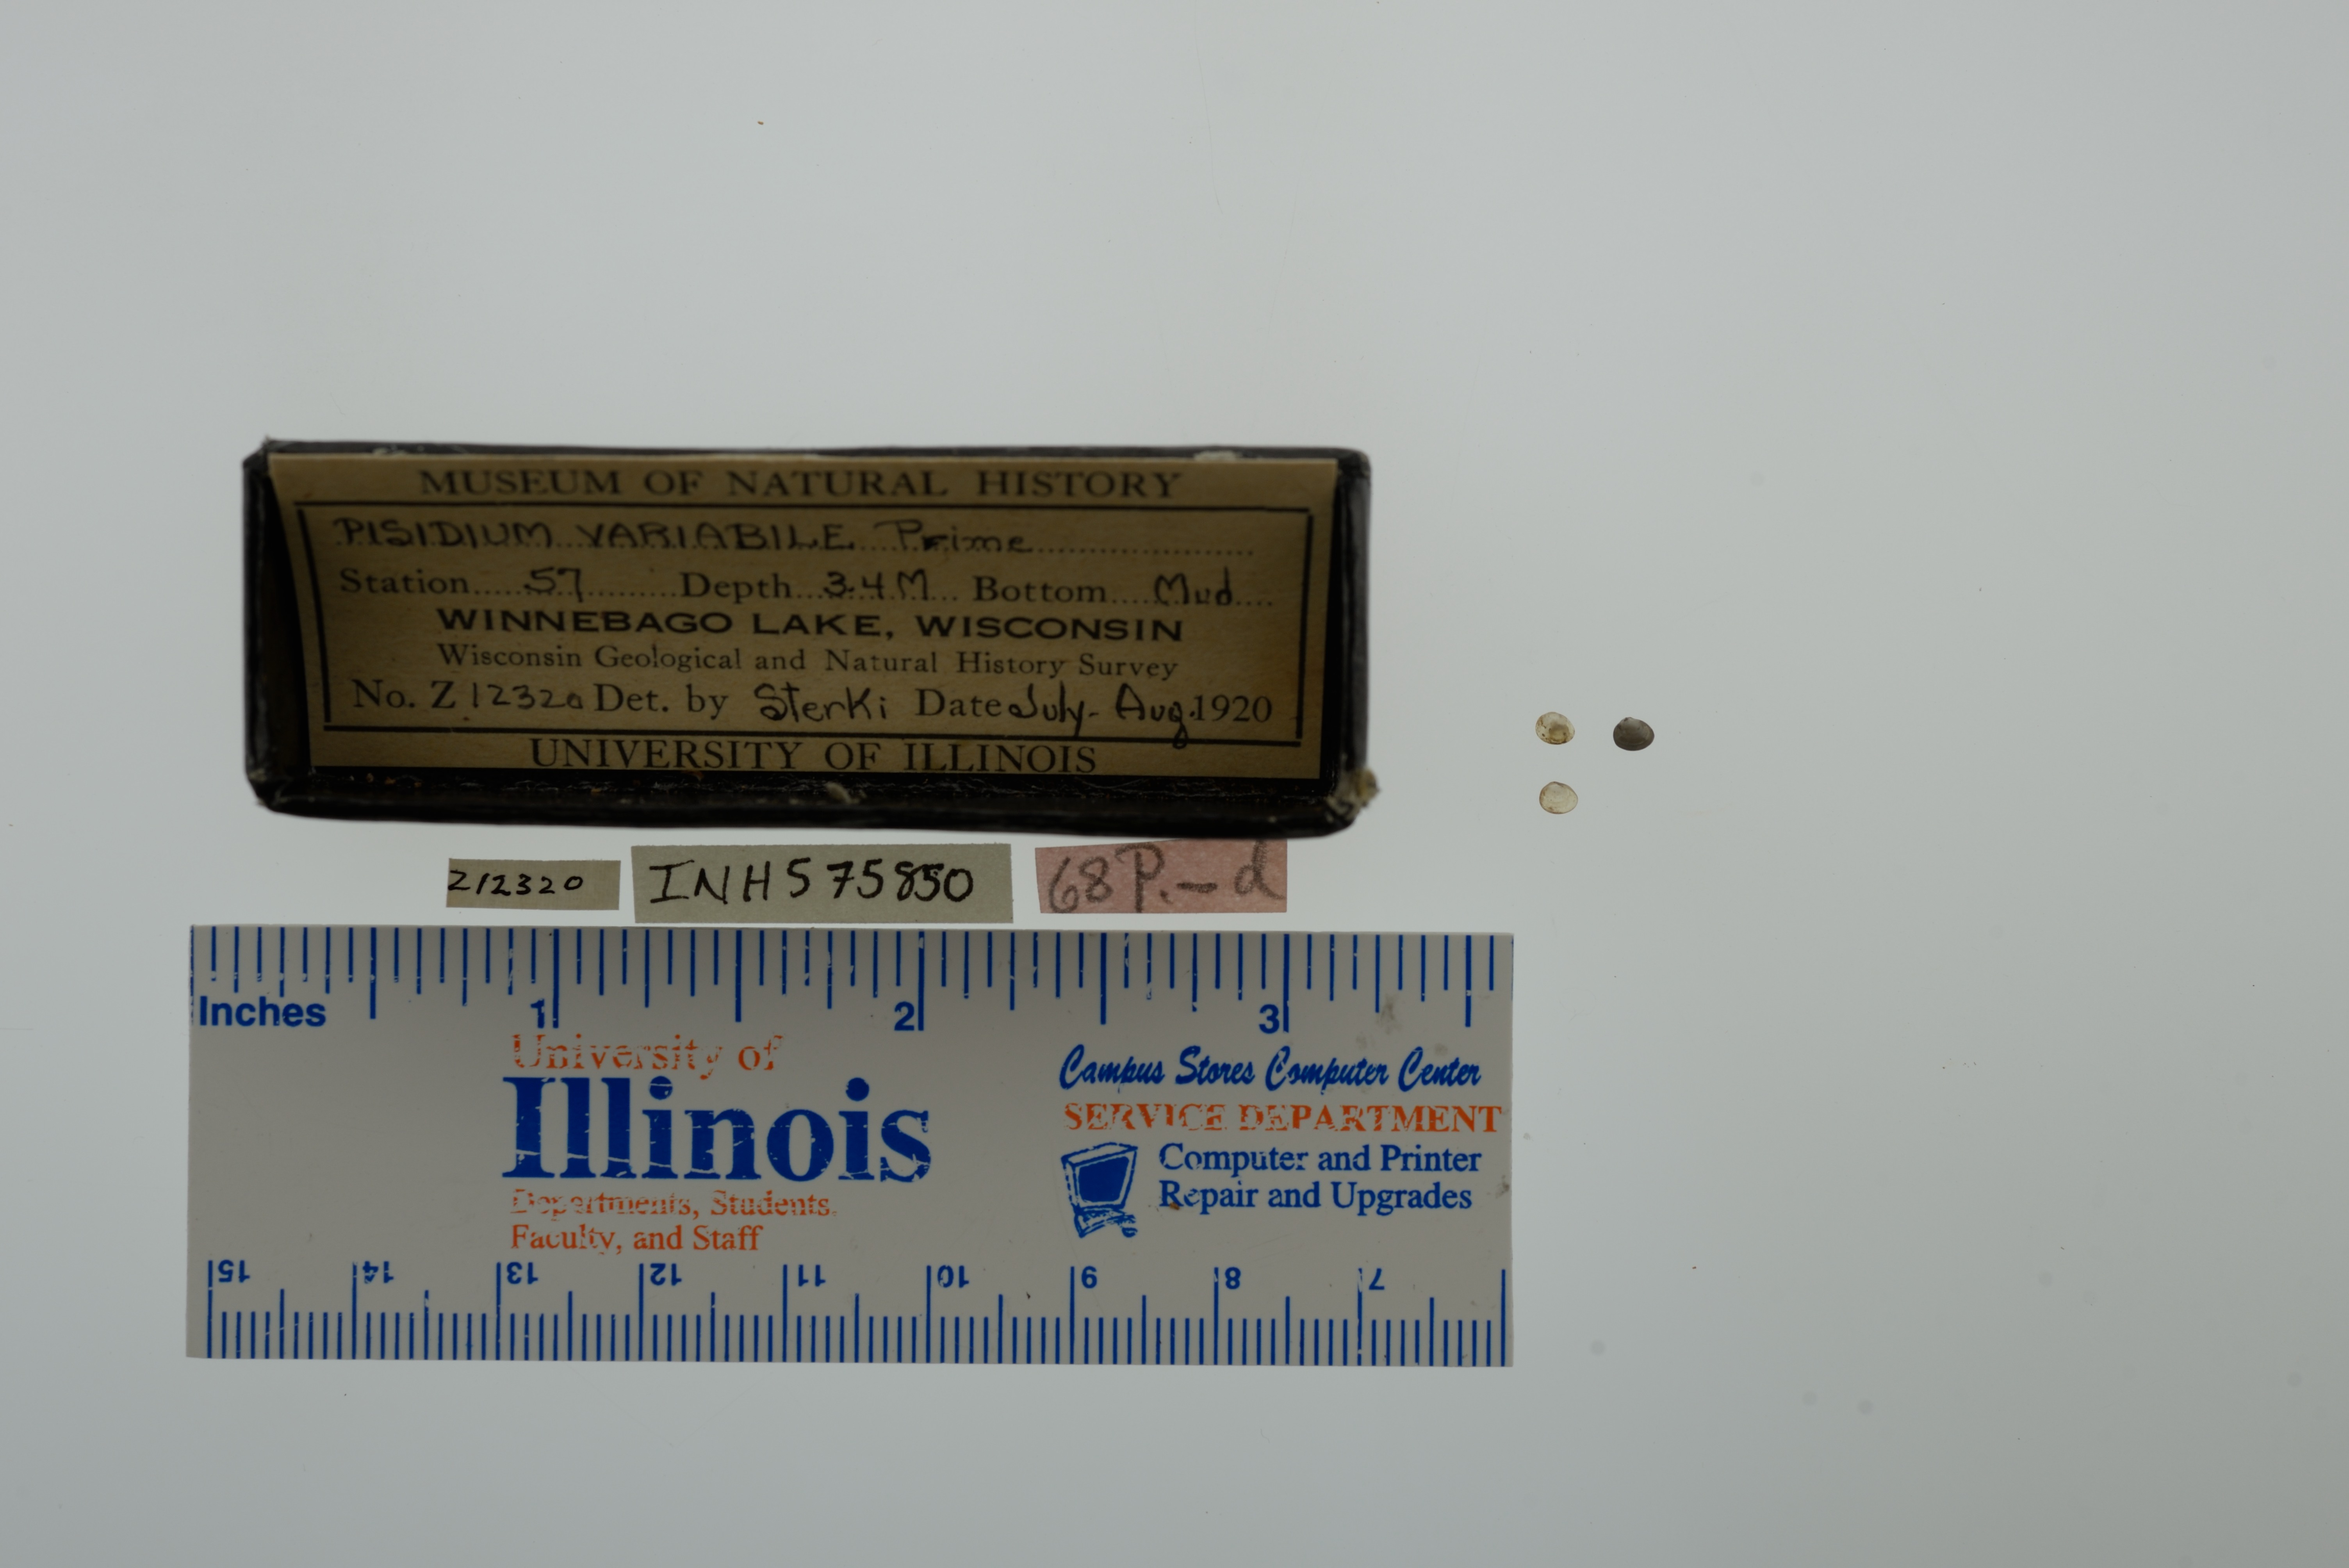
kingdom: Animalia
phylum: Mollusca
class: Bivalvia
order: Sphaeriida
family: Sphaeriidae
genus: Euglesa
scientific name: Euglesa variabilis
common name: Triangular peaclam
